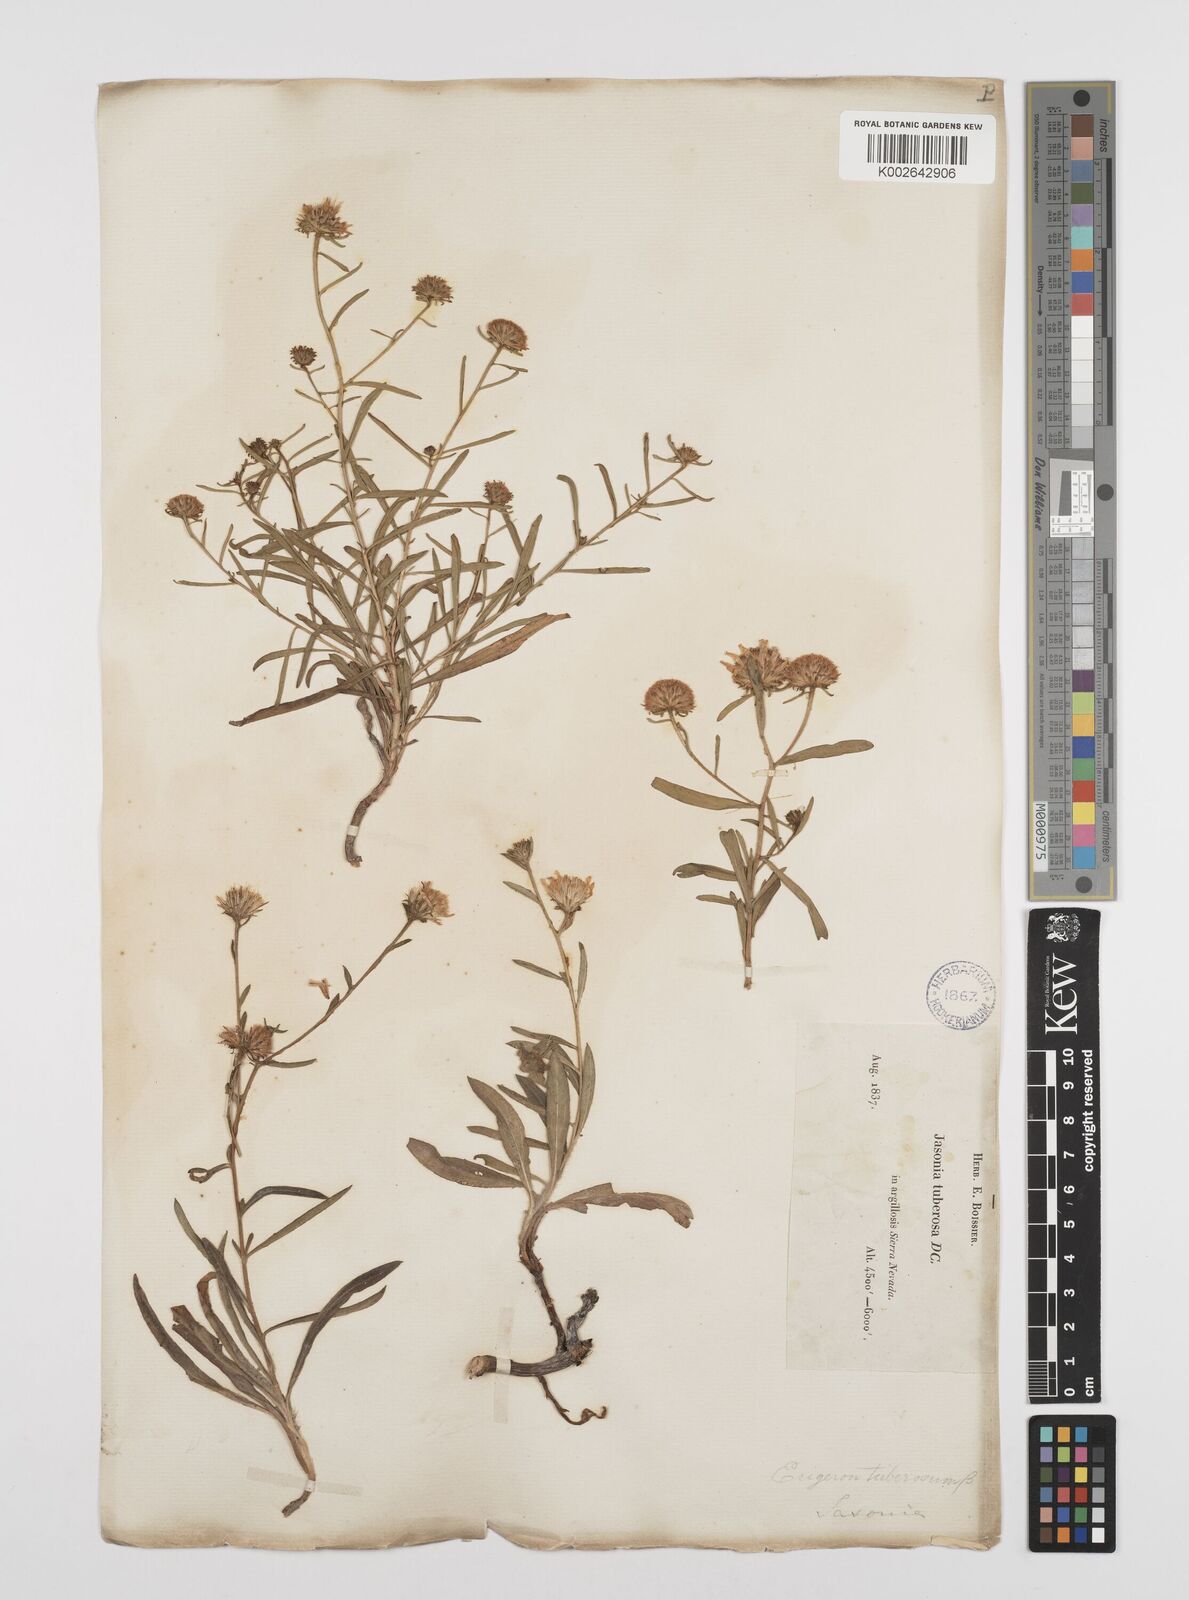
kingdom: Plantae
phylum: Tracheophyta
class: Magnoliopsida
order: Asterales
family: Asteraceae
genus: Jasonia
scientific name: Jasonia tuberosa
